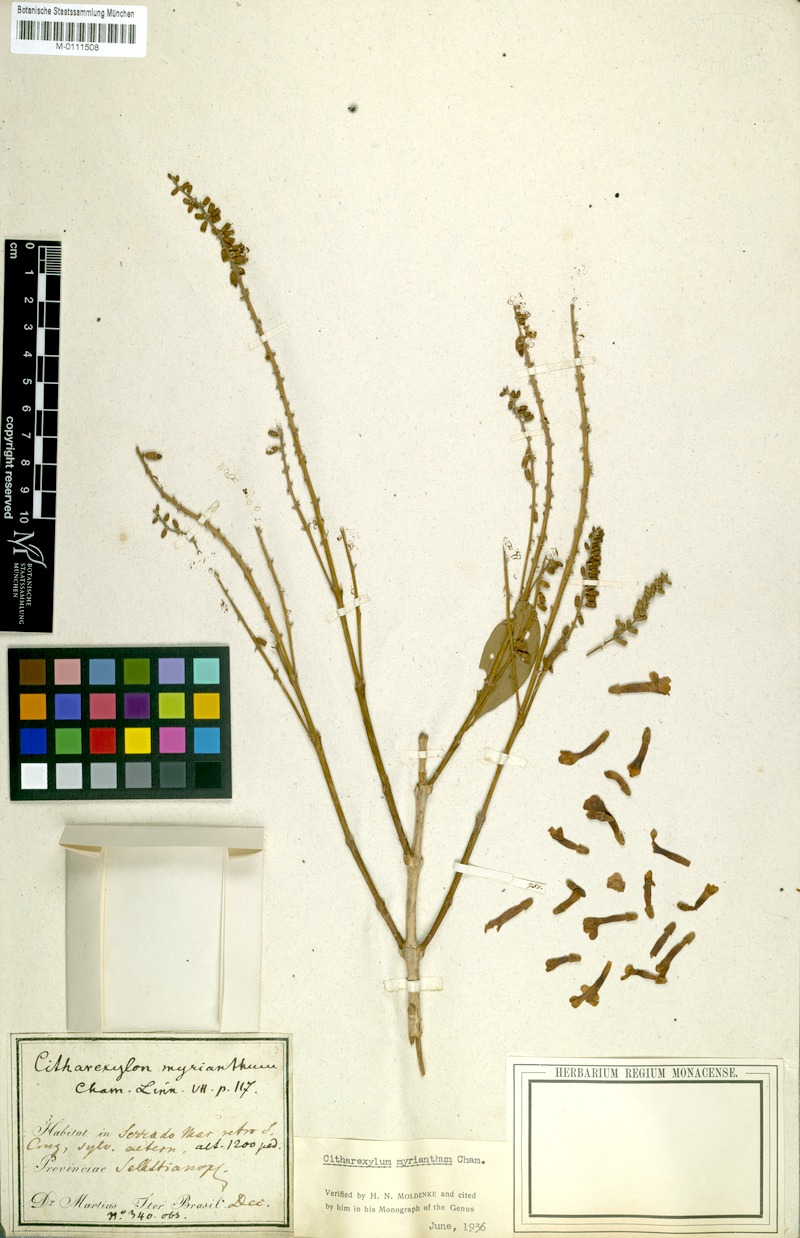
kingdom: Plantae
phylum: Tracheophyta
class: Magnoliopsida
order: Lamiales
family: Verbenaceae
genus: Citharexylum
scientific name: Citharexylum myrianthum
